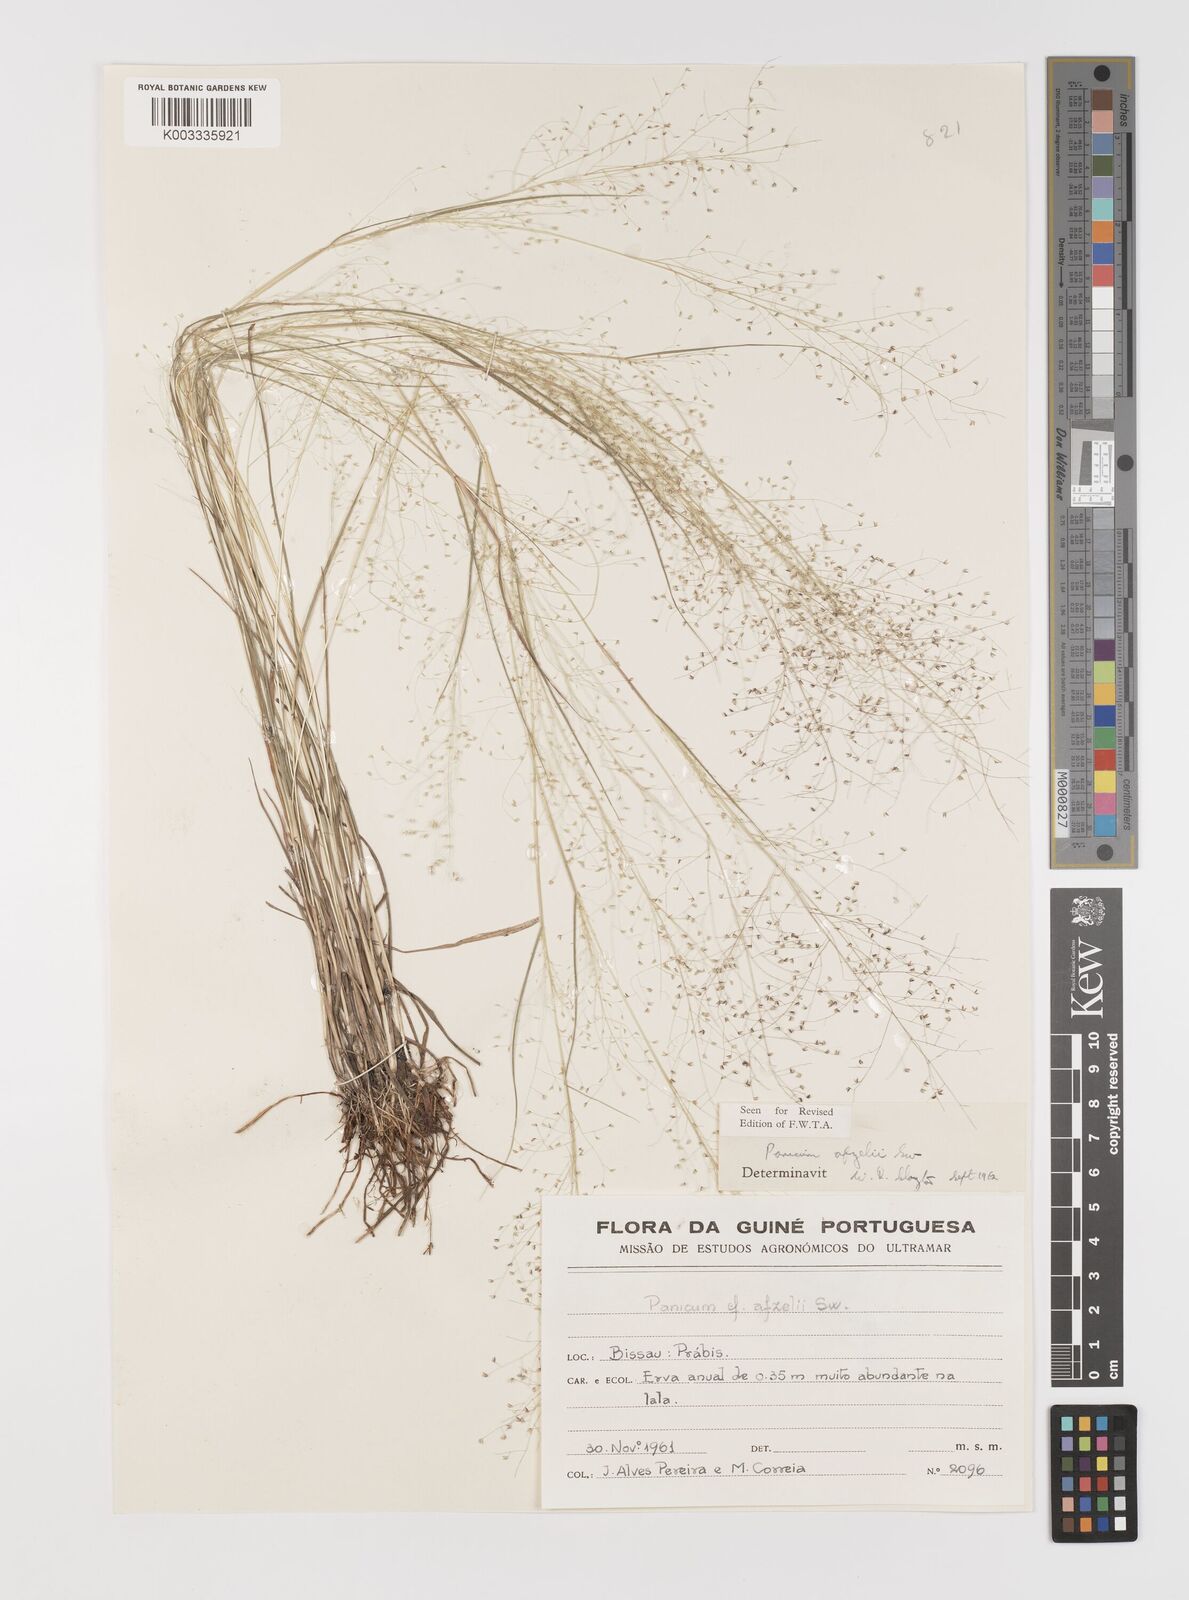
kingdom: Plantae
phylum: Tracheophyta
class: Liliopsida
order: Poales
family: Poaceae
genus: Panicum
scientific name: Panicum afzelii
